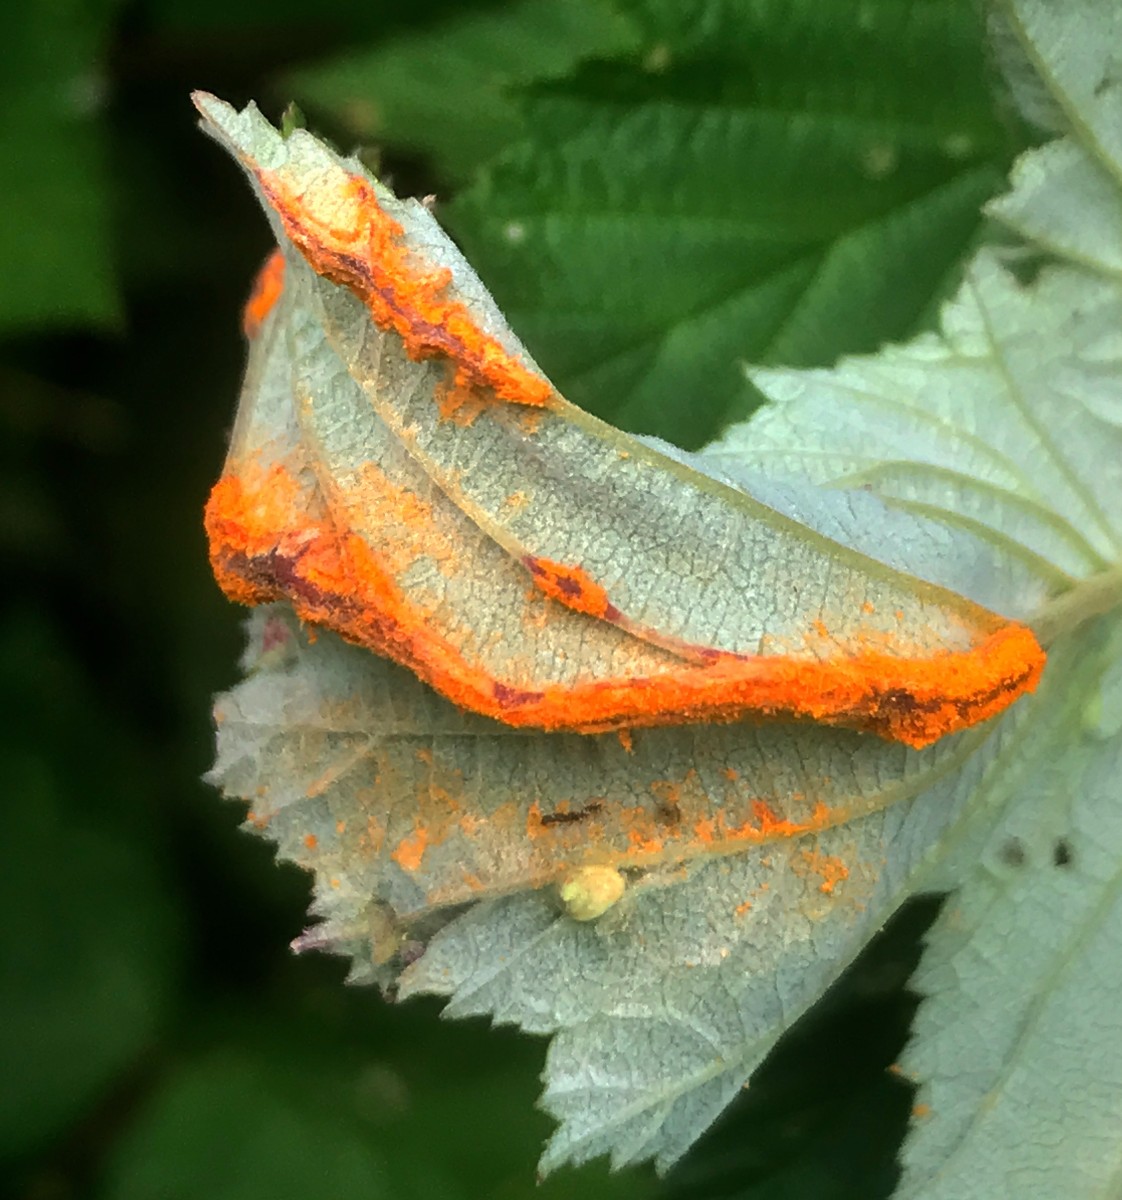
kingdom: Fungi
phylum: Basidiomycota
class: Pucciniomycetes
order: Pucciniales
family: Raveneliaceae
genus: Triphragmium
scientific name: Triphragmium ulmariae
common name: almindelig mjødurtrust
